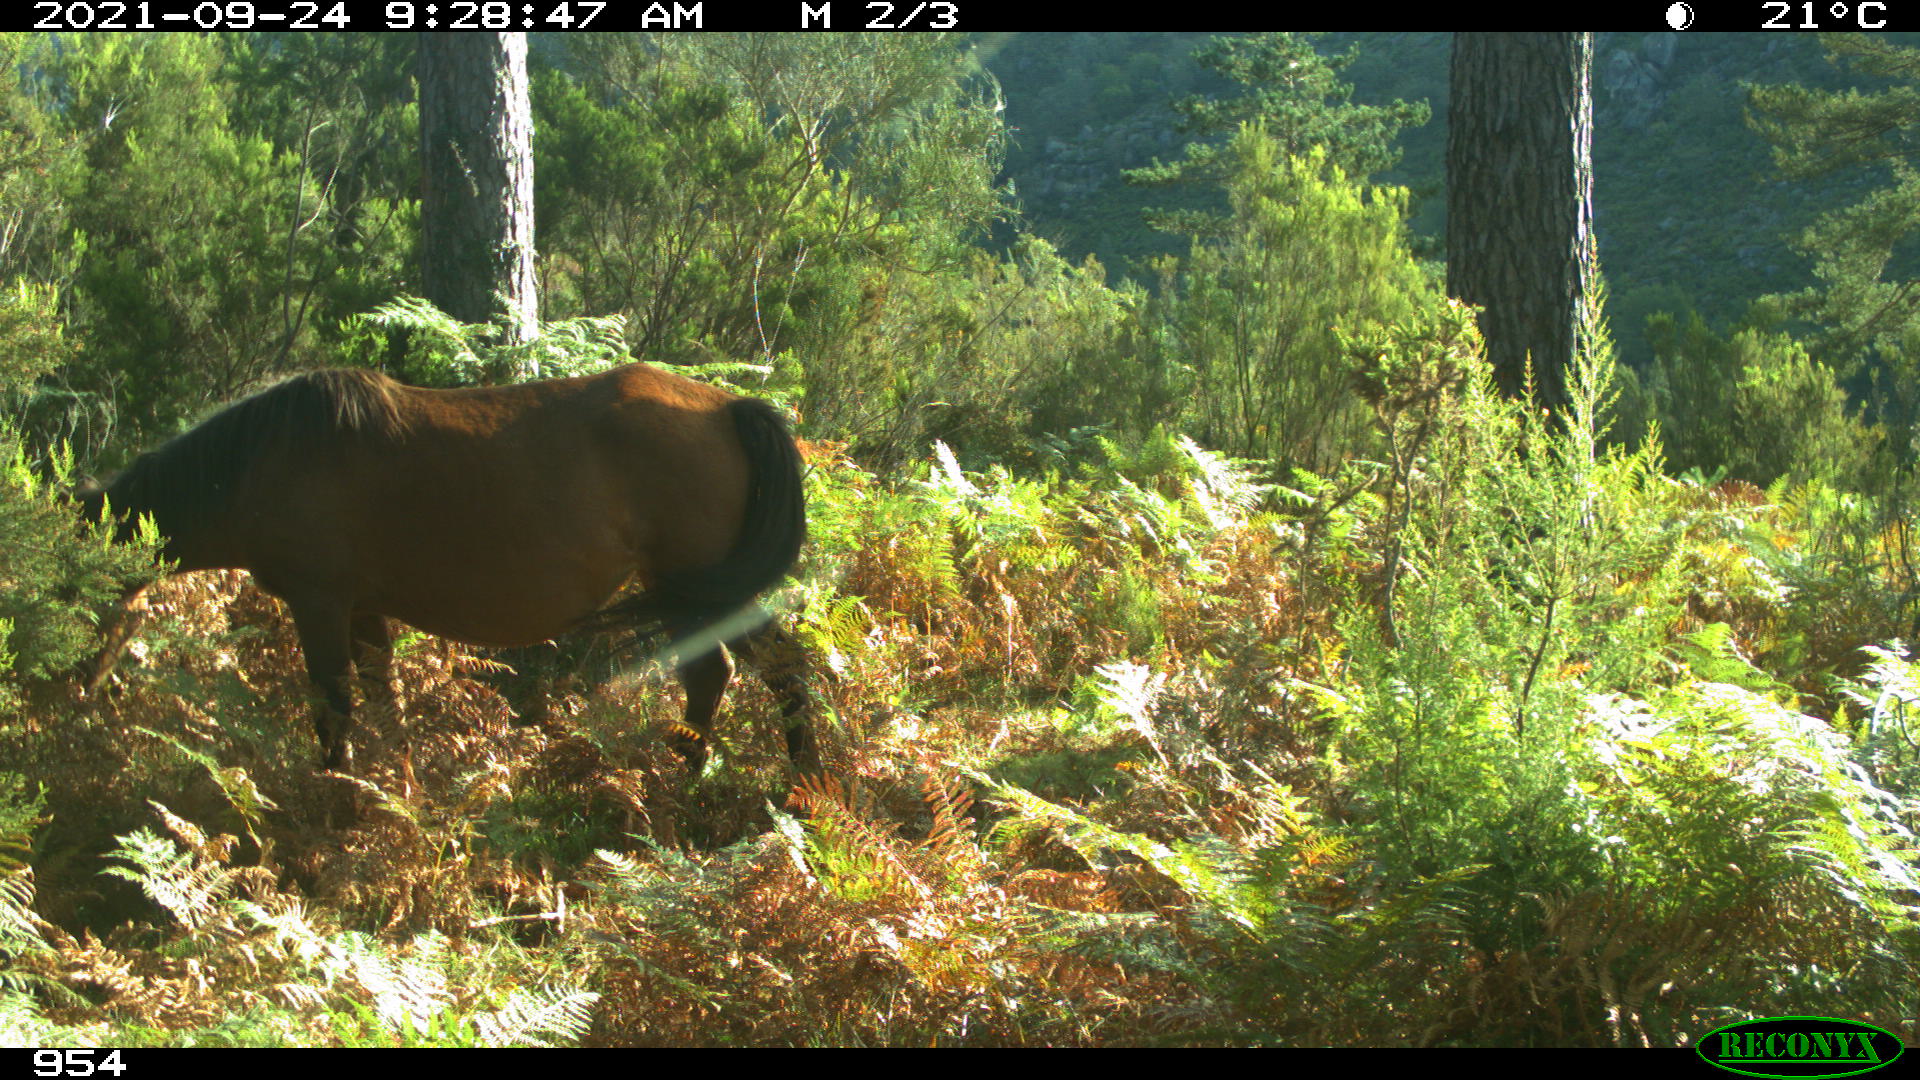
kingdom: Animalia
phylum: Chordata
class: Mammalia
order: Perissodactyla
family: Equidae
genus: Equus
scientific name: Equus caballus
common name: Horse
